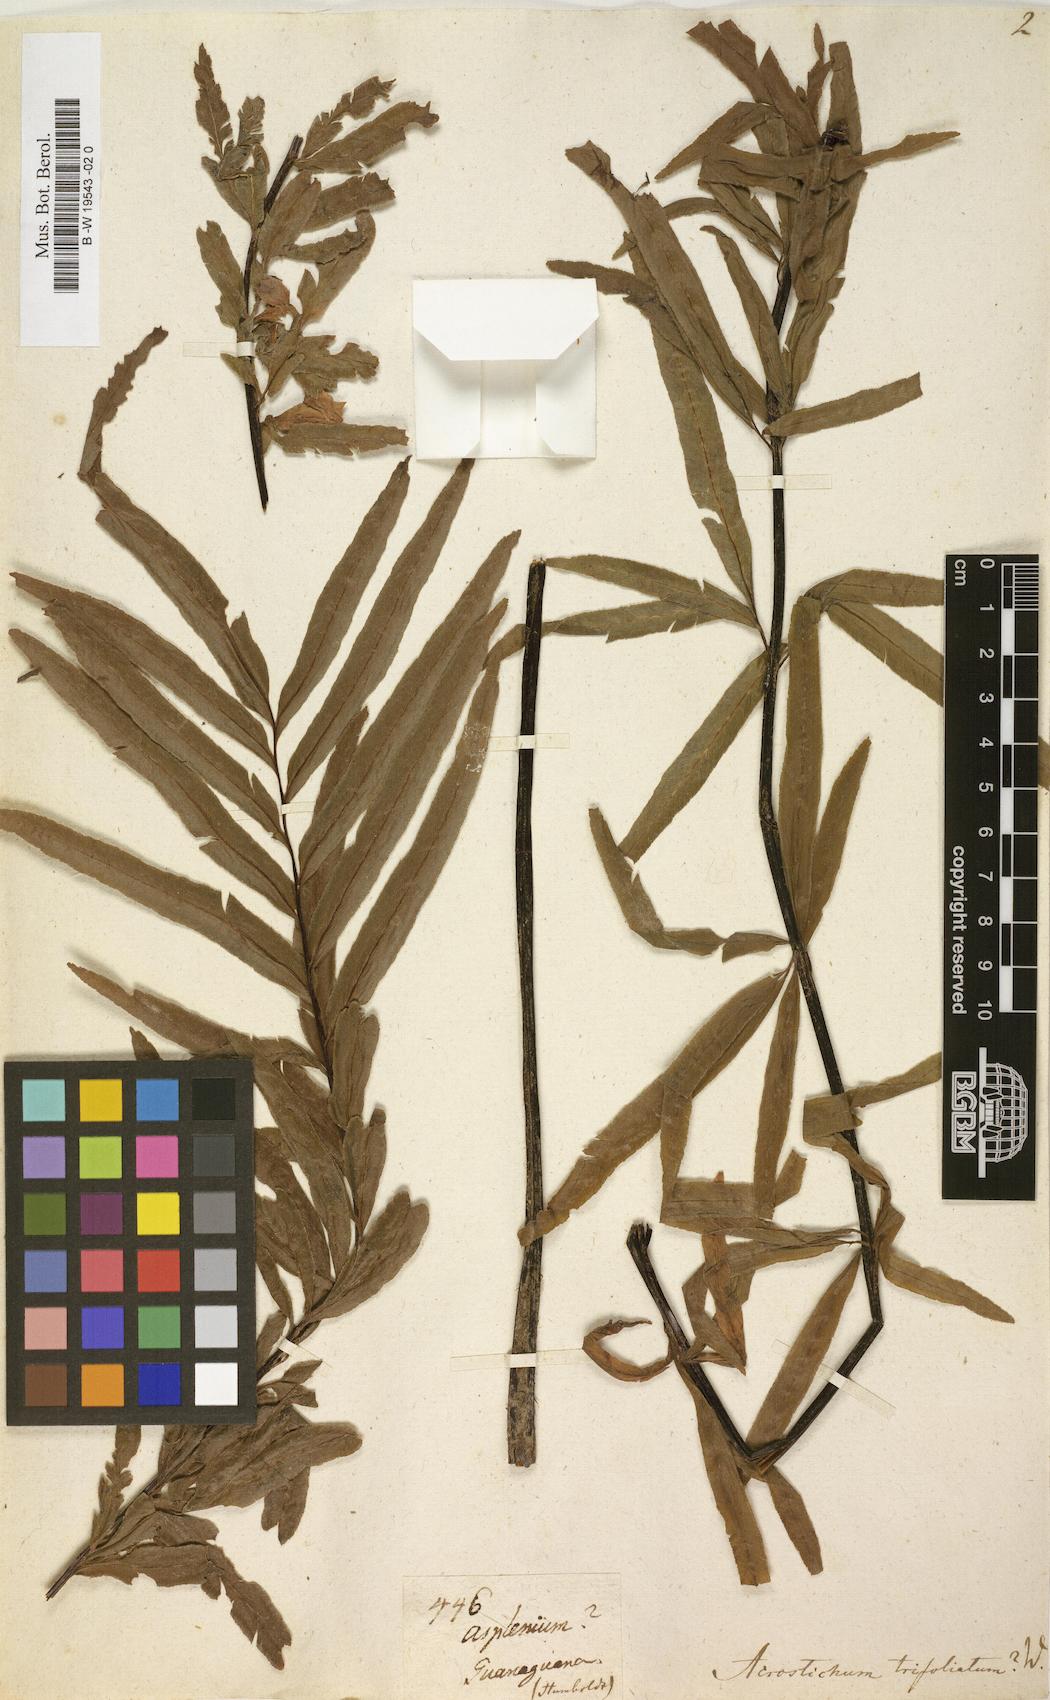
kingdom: Plantae
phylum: Tracheophyta
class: Polypodiopsida
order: Polypodiales
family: Pteridaceae
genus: Pityrogramma
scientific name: Pityrogramma trifoliata
